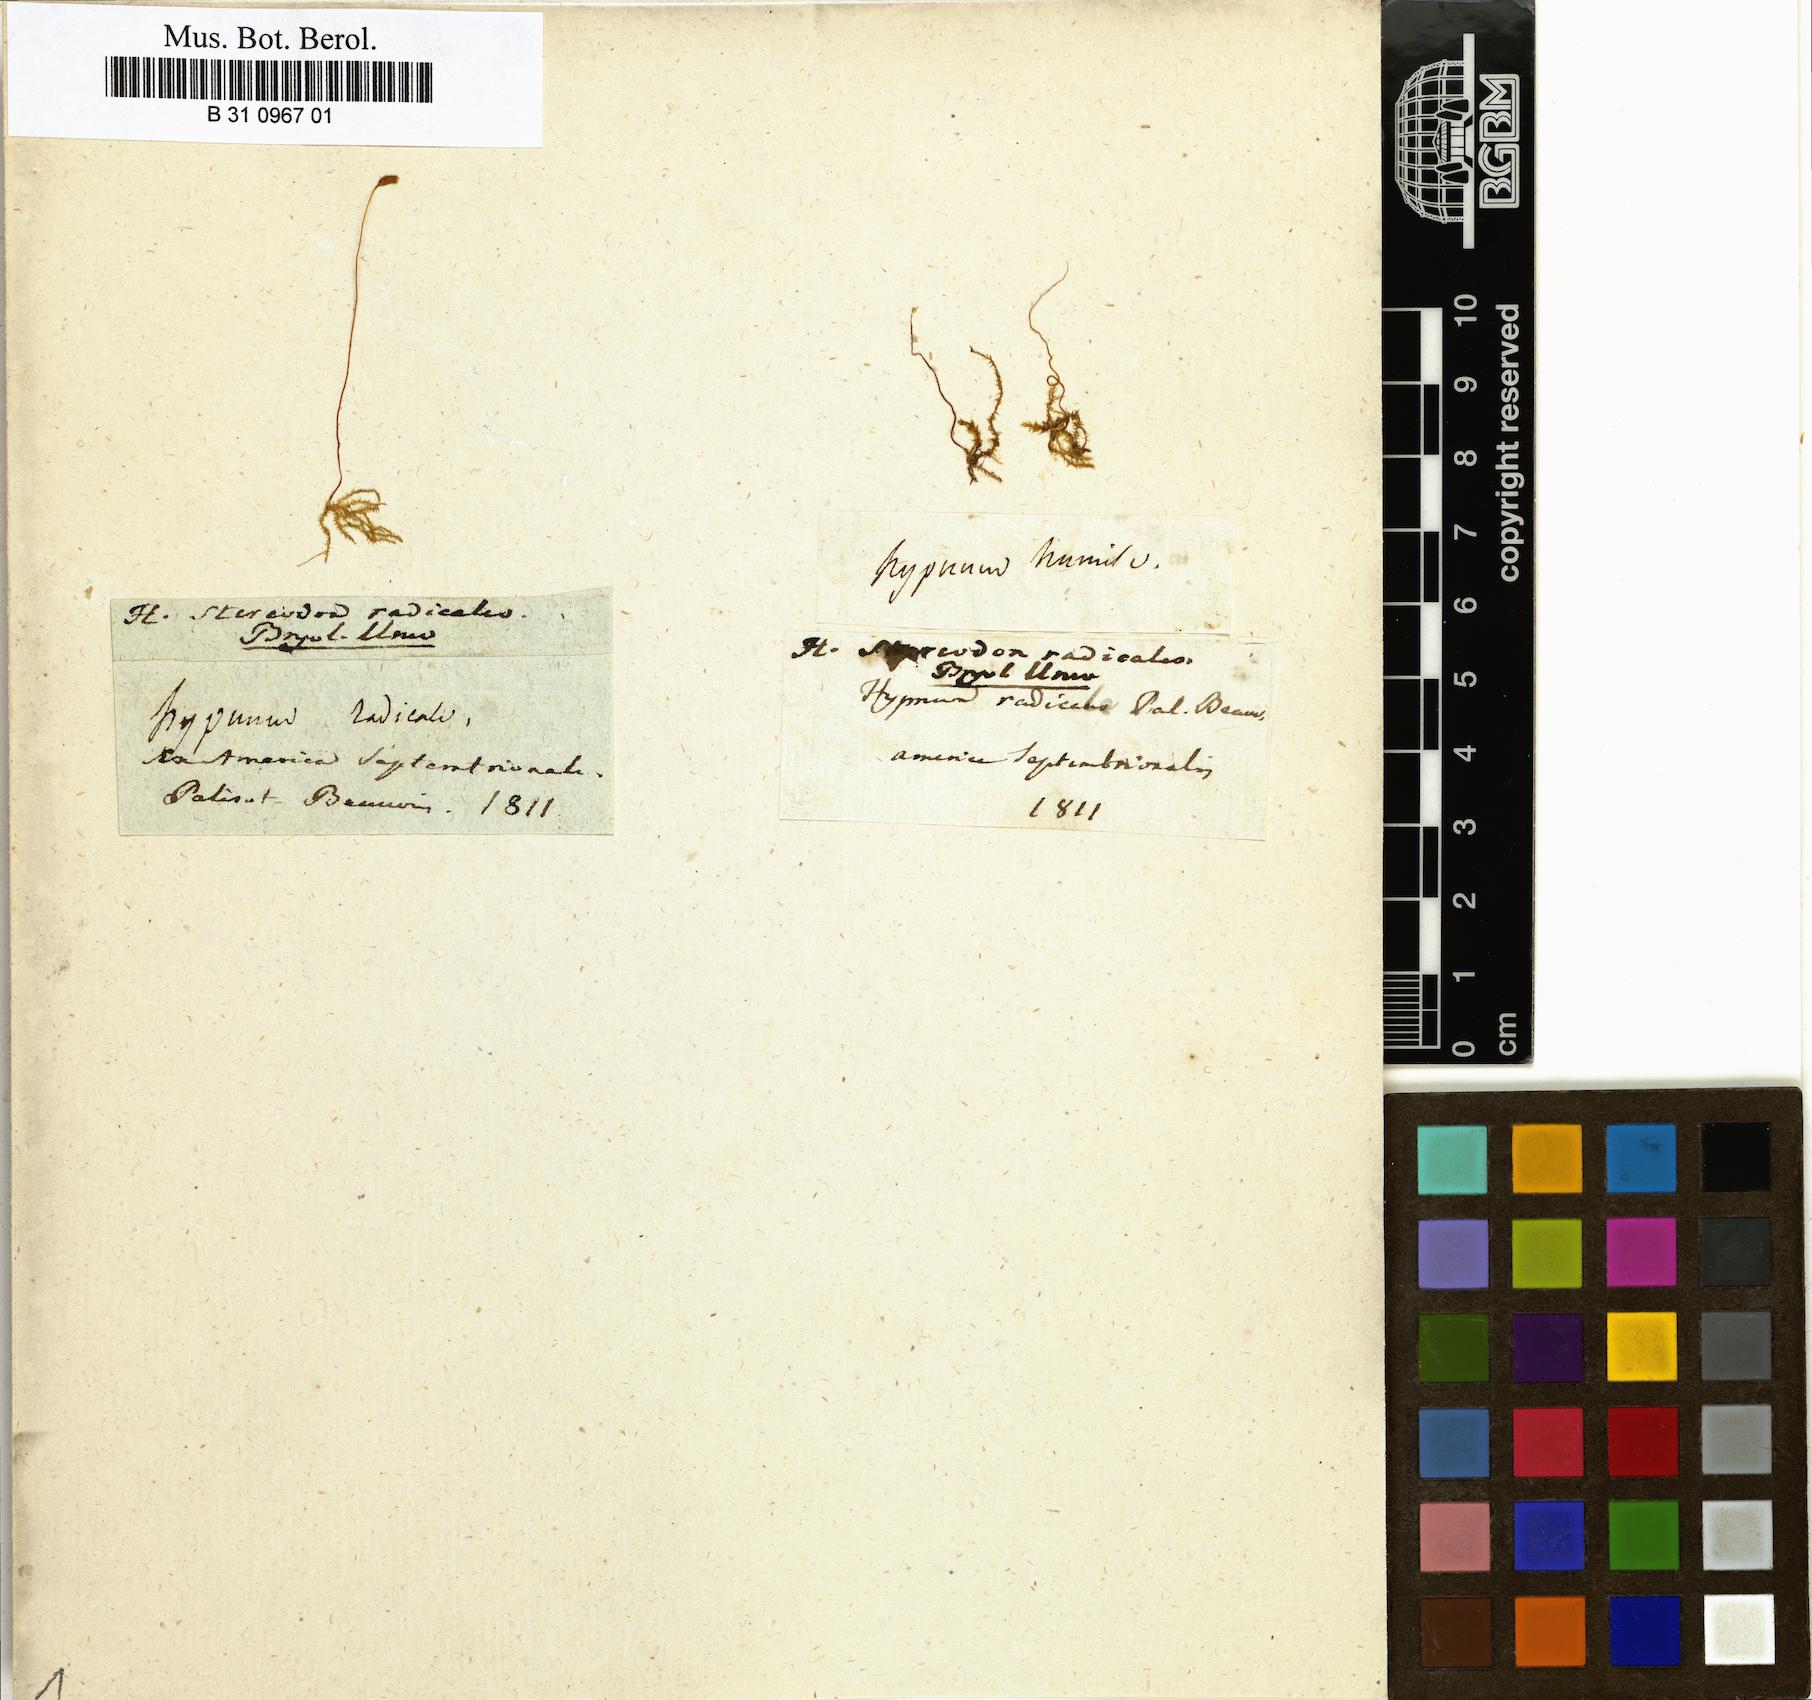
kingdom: Plantae
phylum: Bryophyta
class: Bryopsida
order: Hypnales
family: Amblystegiaceae
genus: Pseudocampylium
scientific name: Pseudocampylium radicale
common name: Long-stalked fine wet moss
